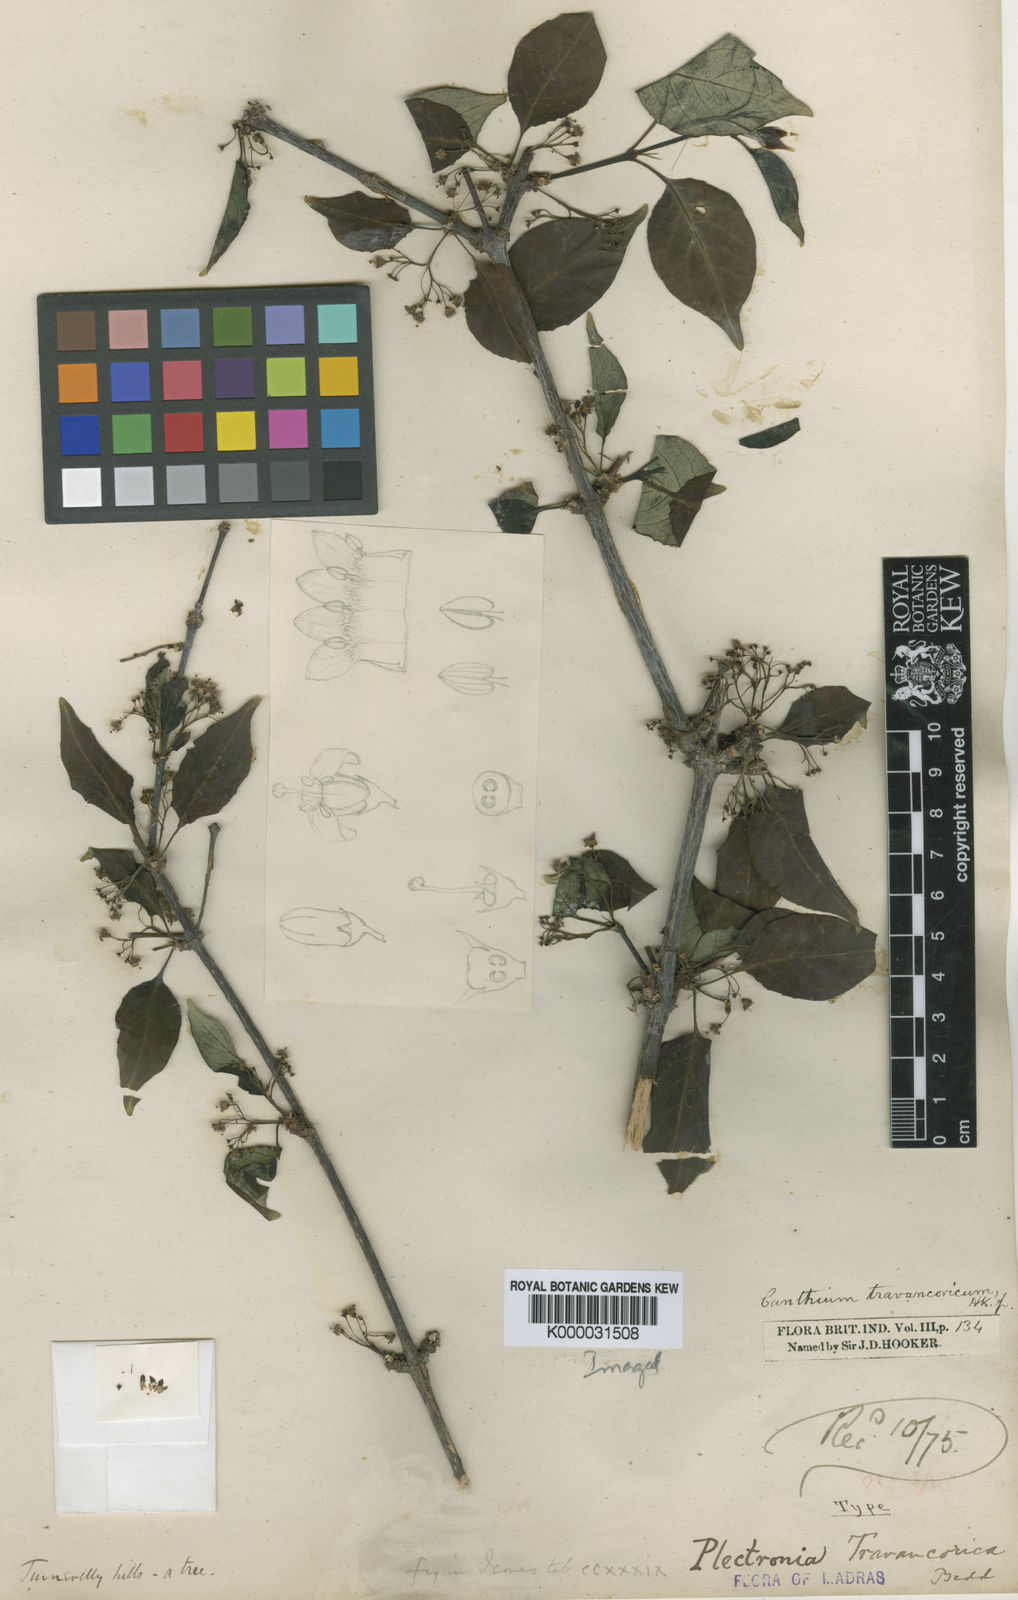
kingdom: Plantae
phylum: Tracheophyta
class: Magnoliopsida
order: Gentianales
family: Rubiaceae
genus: Canthium
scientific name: Canthium
